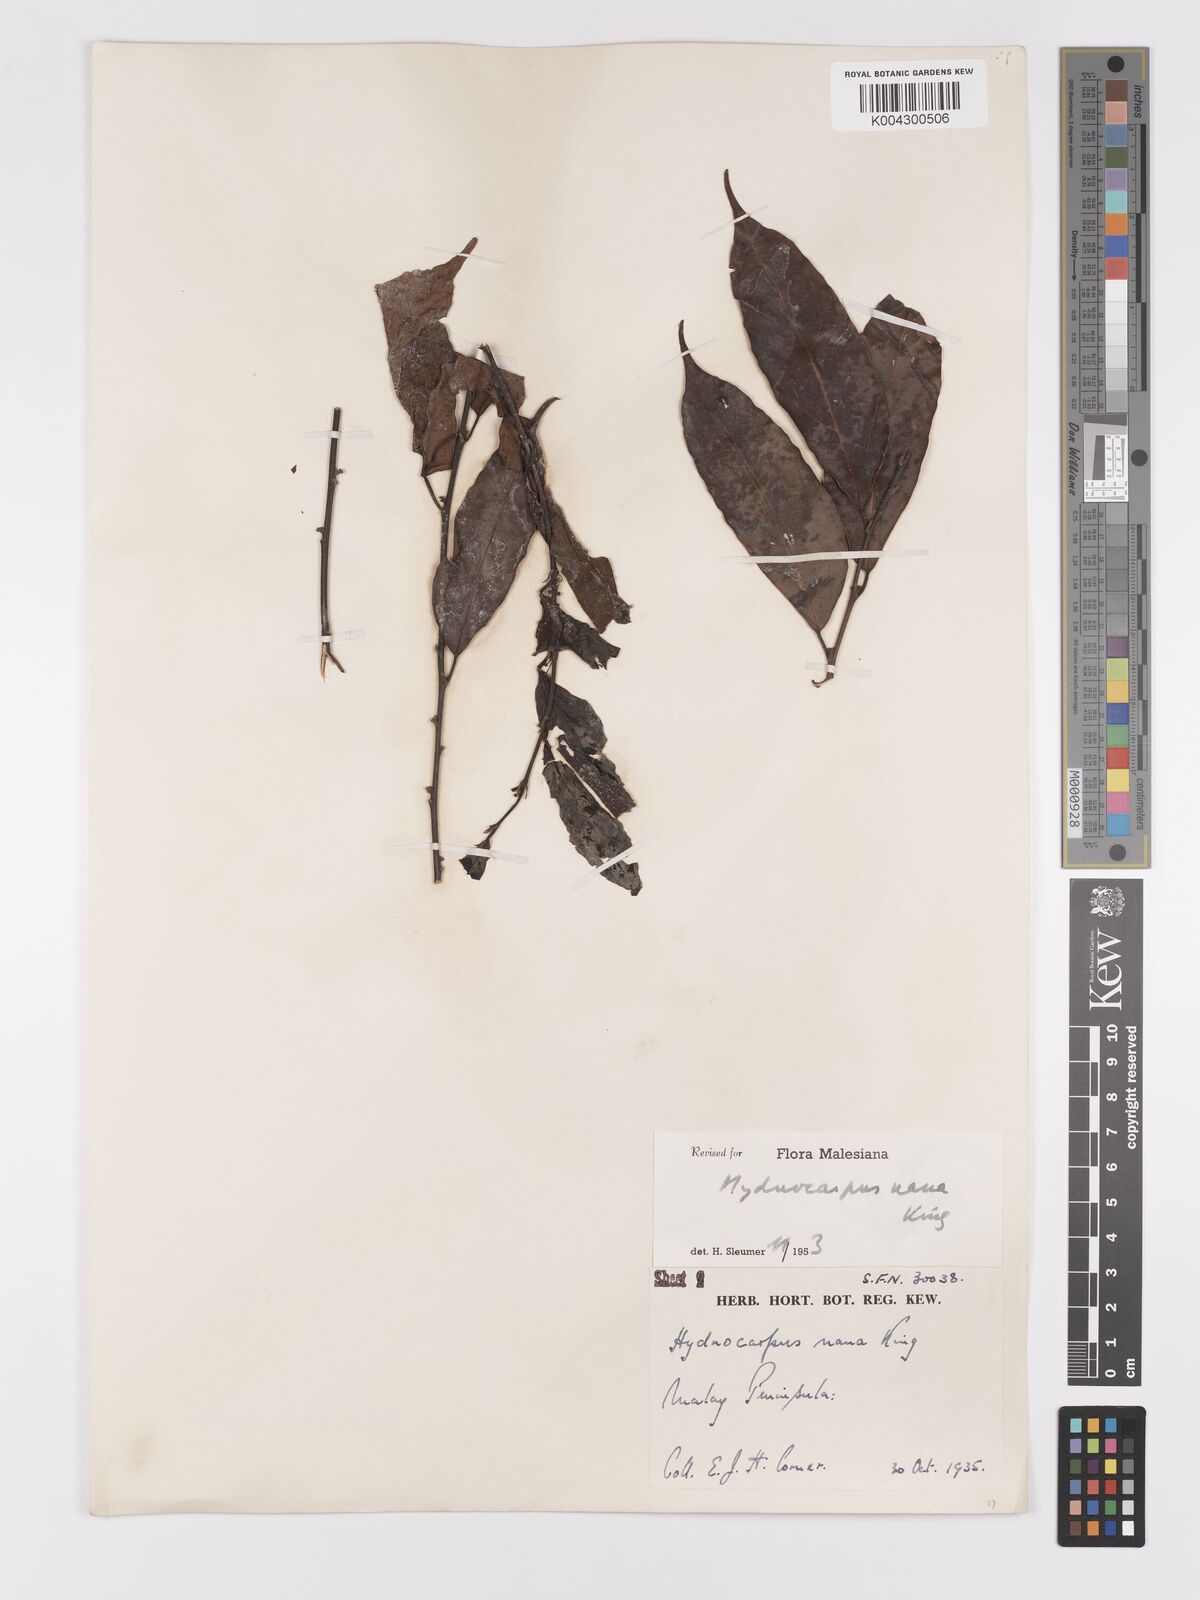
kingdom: Plantae
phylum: Tracheophyta
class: Magnoliopsida
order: Malpighiales
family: Achariaceae
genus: Hydnocarpus
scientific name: Hydnocarpus nanus
